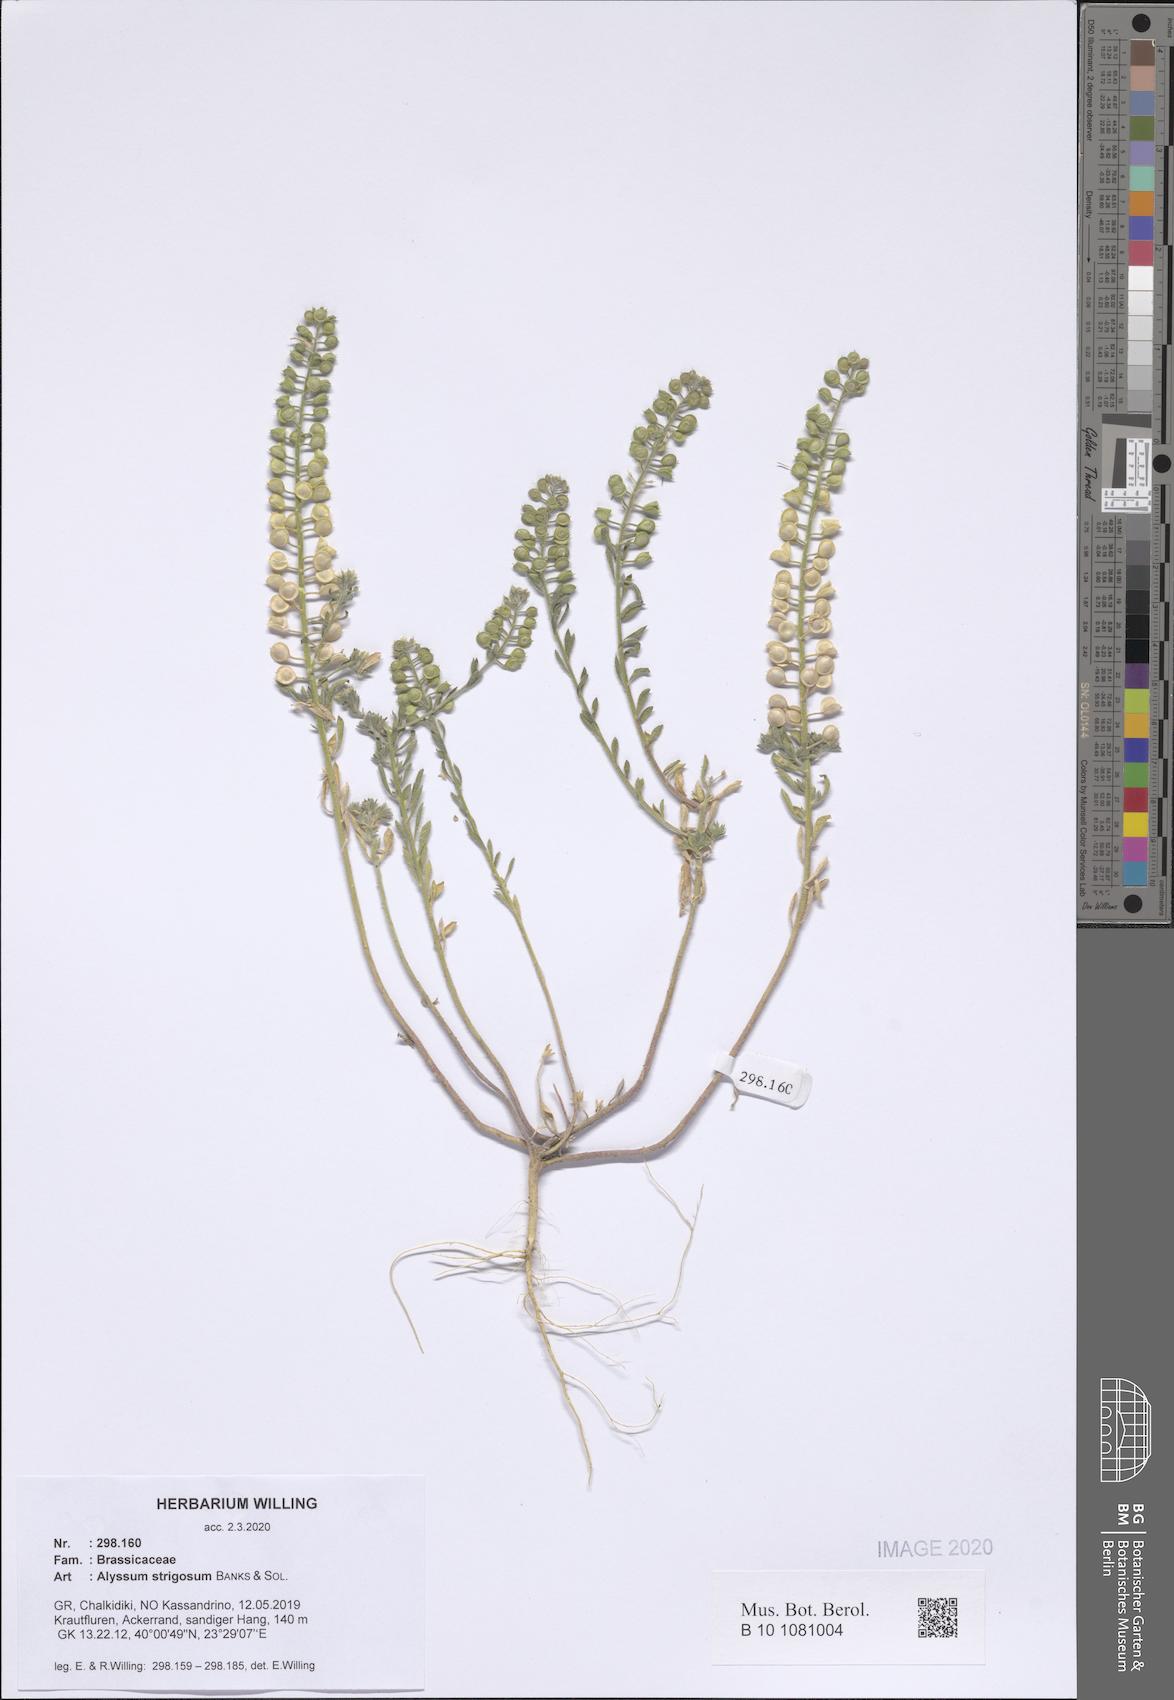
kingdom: Plantae
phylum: Tracheophyta
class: Magnoliopsida
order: Brassicales
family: Brassicaceae
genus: Alyssum
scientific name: Alyssum strigosum
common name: Alyssum
